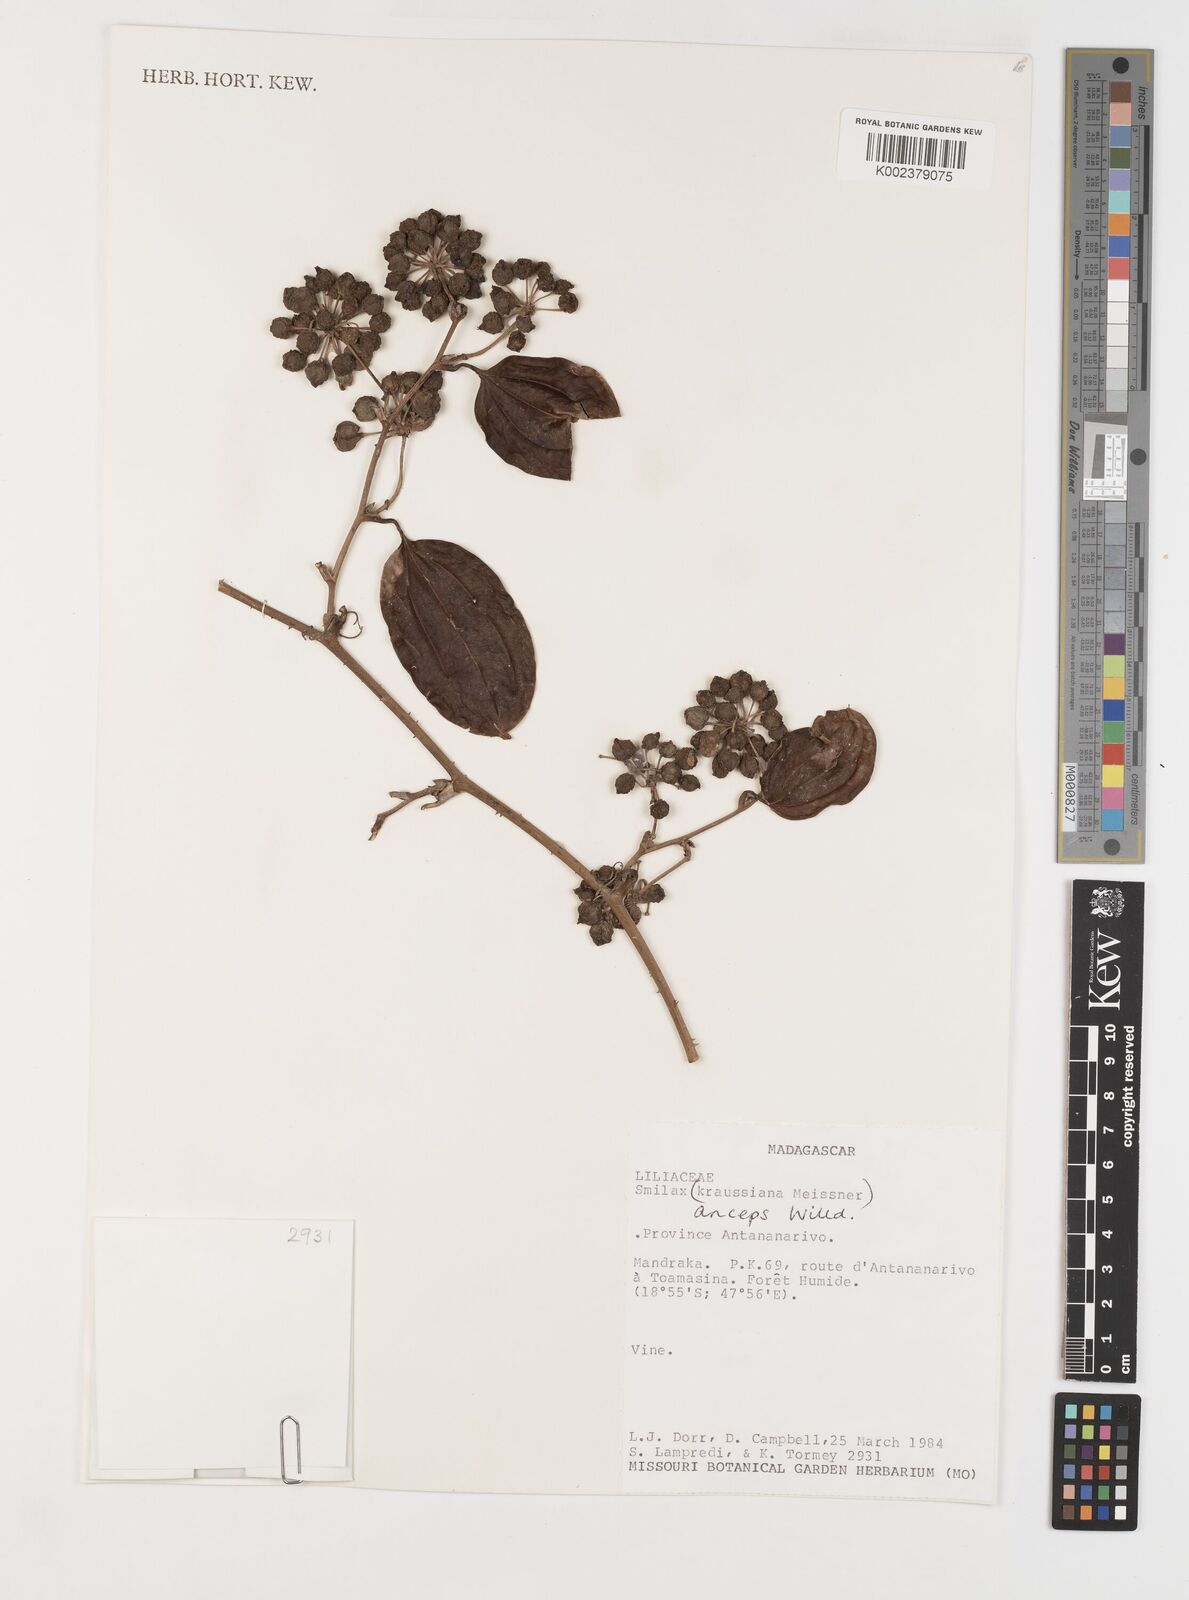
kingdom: Plantae
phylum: Tracheophyta
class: Liliopsida
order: Liliales
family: Smilacaceae
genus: Smilax
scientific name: Smilax anceps
